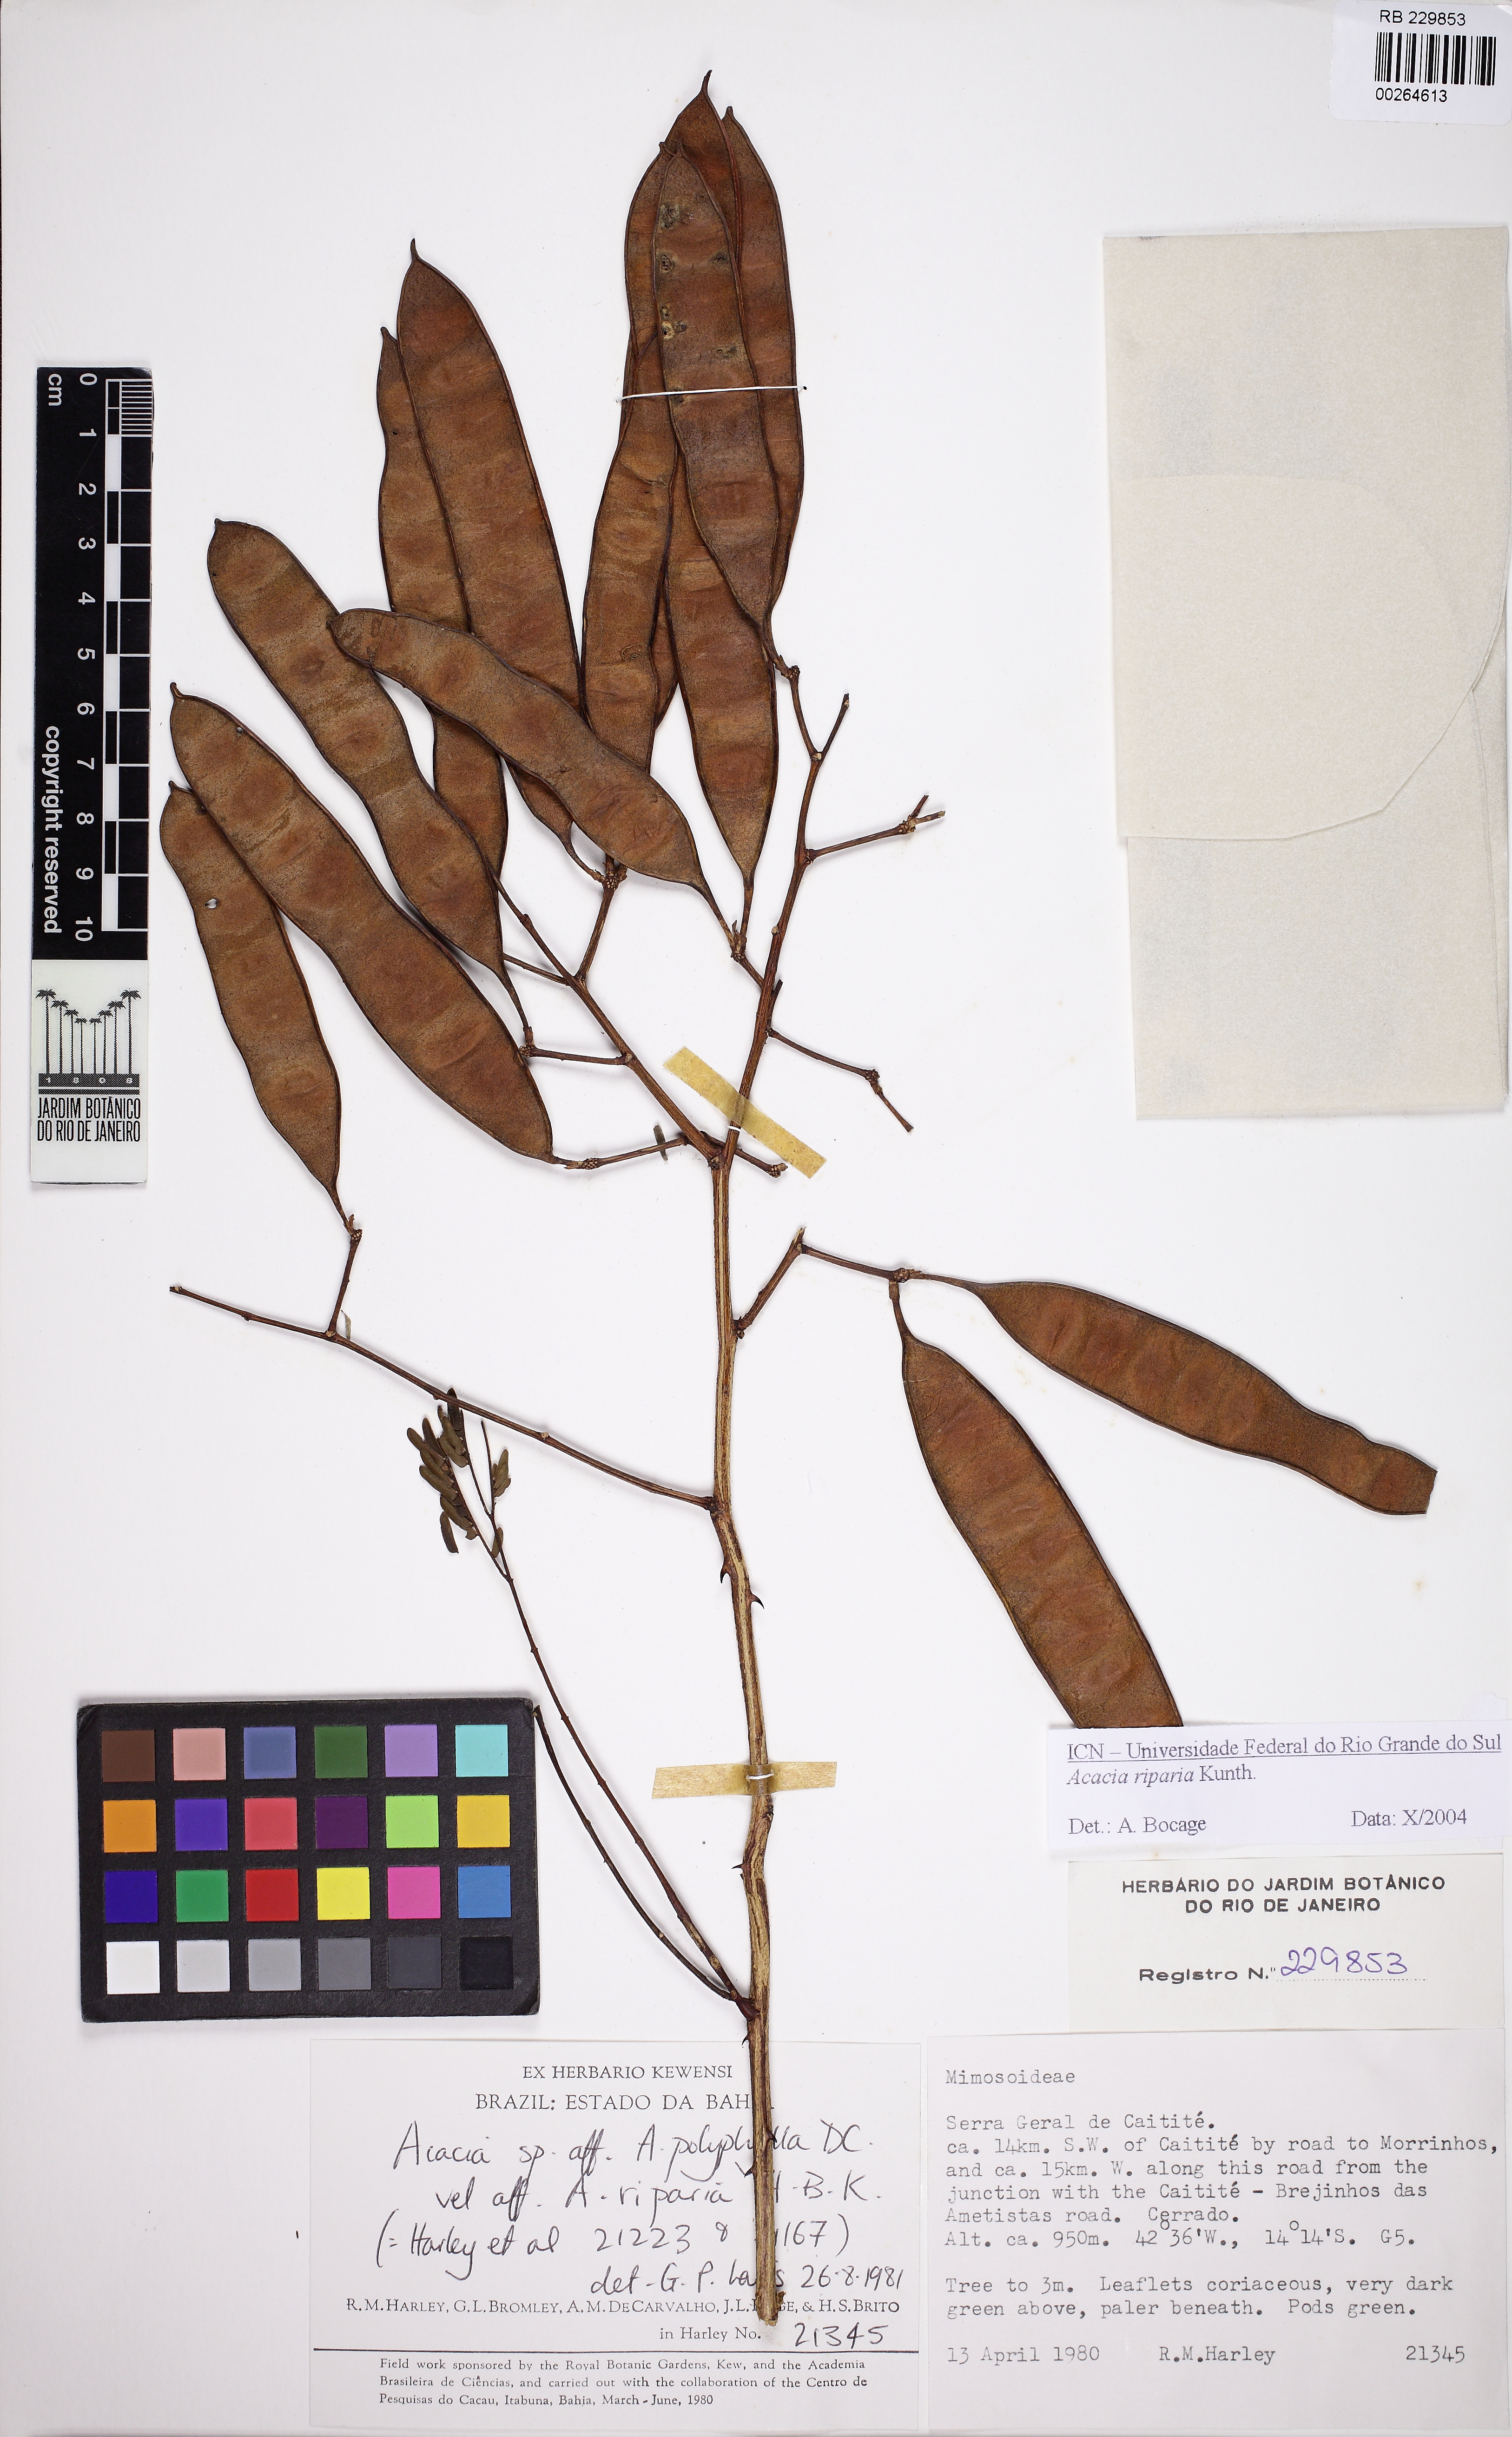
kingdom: Plantae
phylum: Tracheophyta
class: Magnoliopsida
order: Fabales
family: Fabaceae
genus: Senegalia
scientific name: Senegalia riparia
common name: Catch-and-keep
